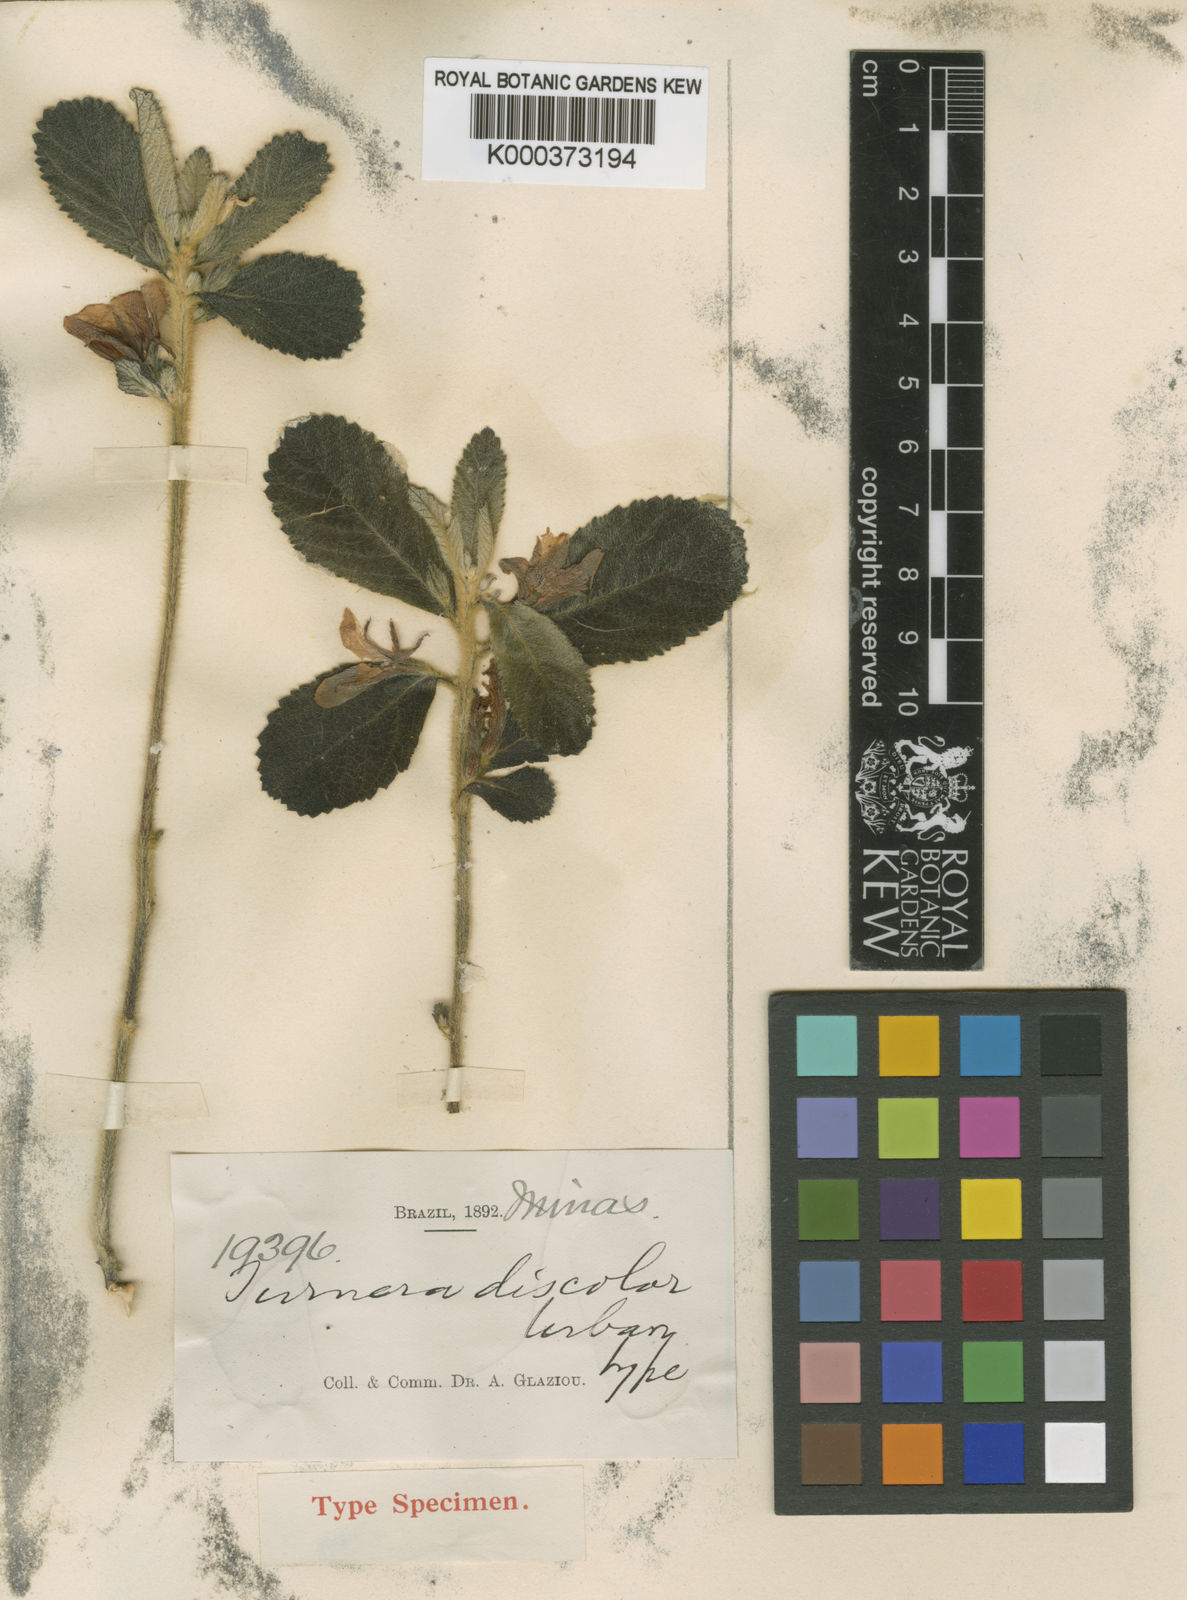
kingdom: Plantae
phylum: Tracheophyta
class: Magnoliopsida
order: Malpighiales
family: Turneraceae
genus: Turnera
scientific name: Turnera discolor
